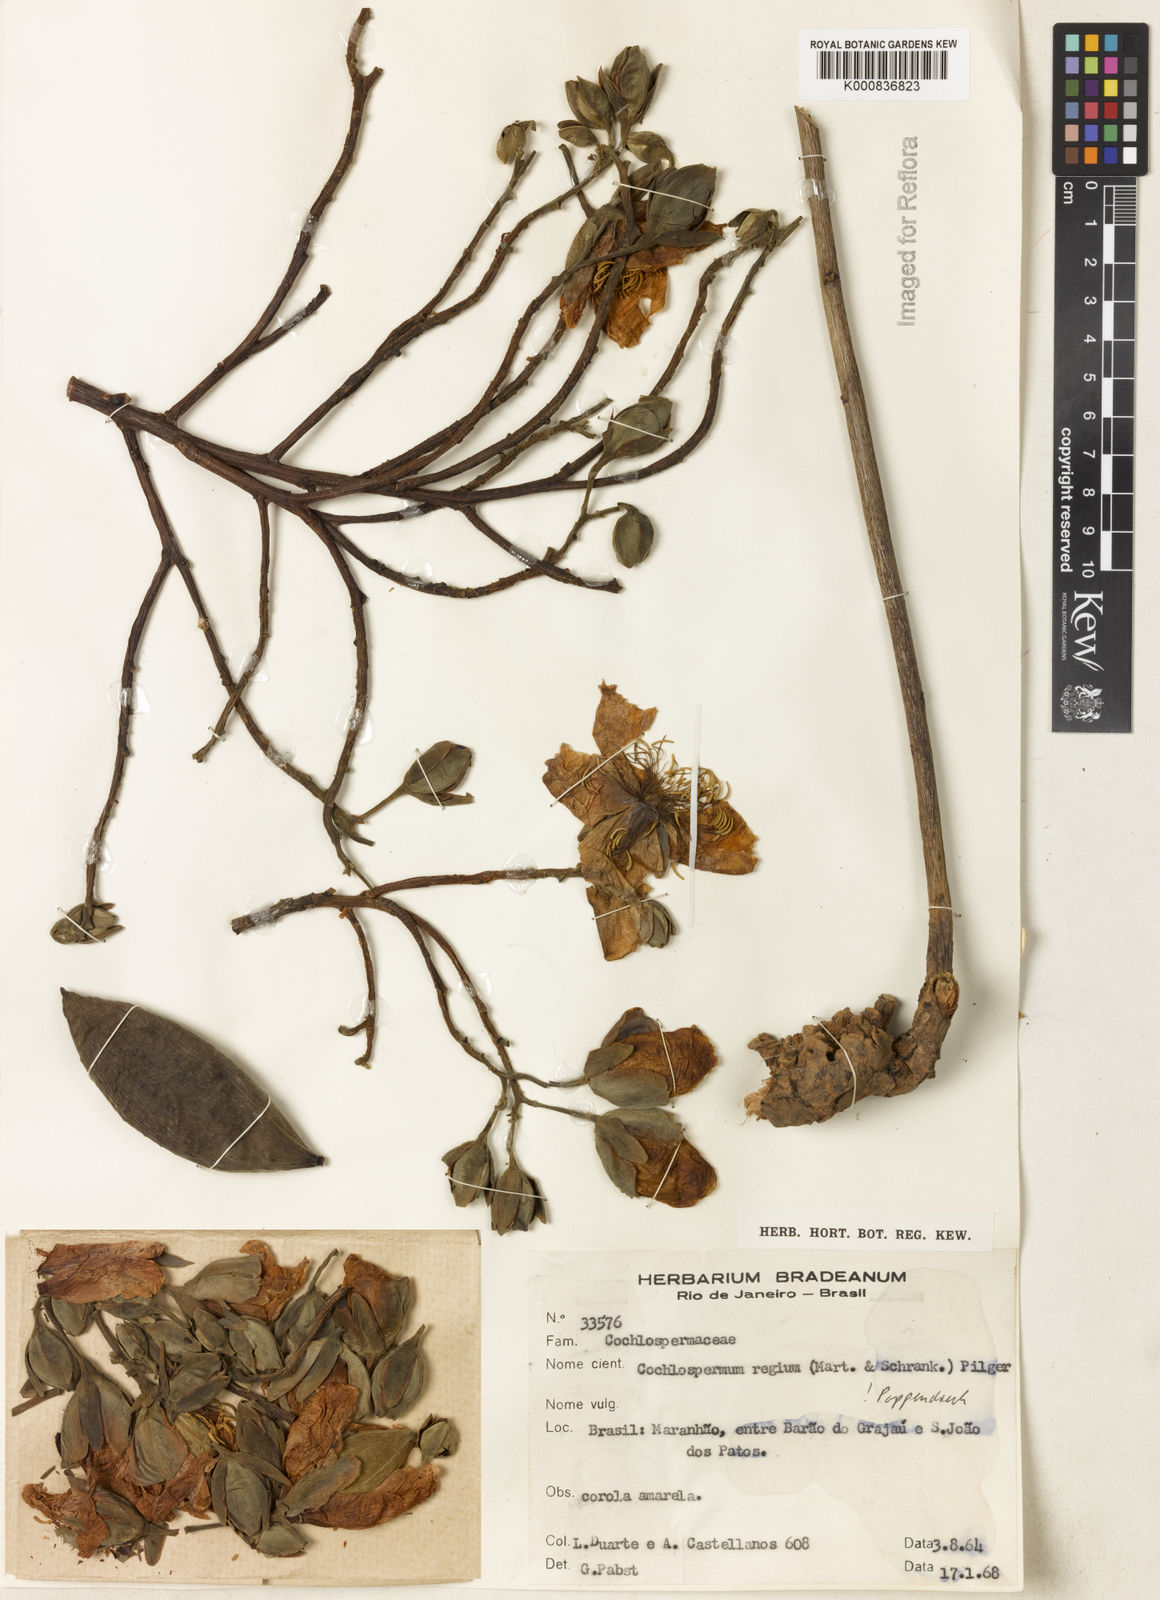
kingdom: Plantae
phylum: Tracheophyta
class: Magnoliopsida
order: Malvales
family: Cochlospermaceae
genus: Cochlospermum
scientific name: Cochlospermum regium
